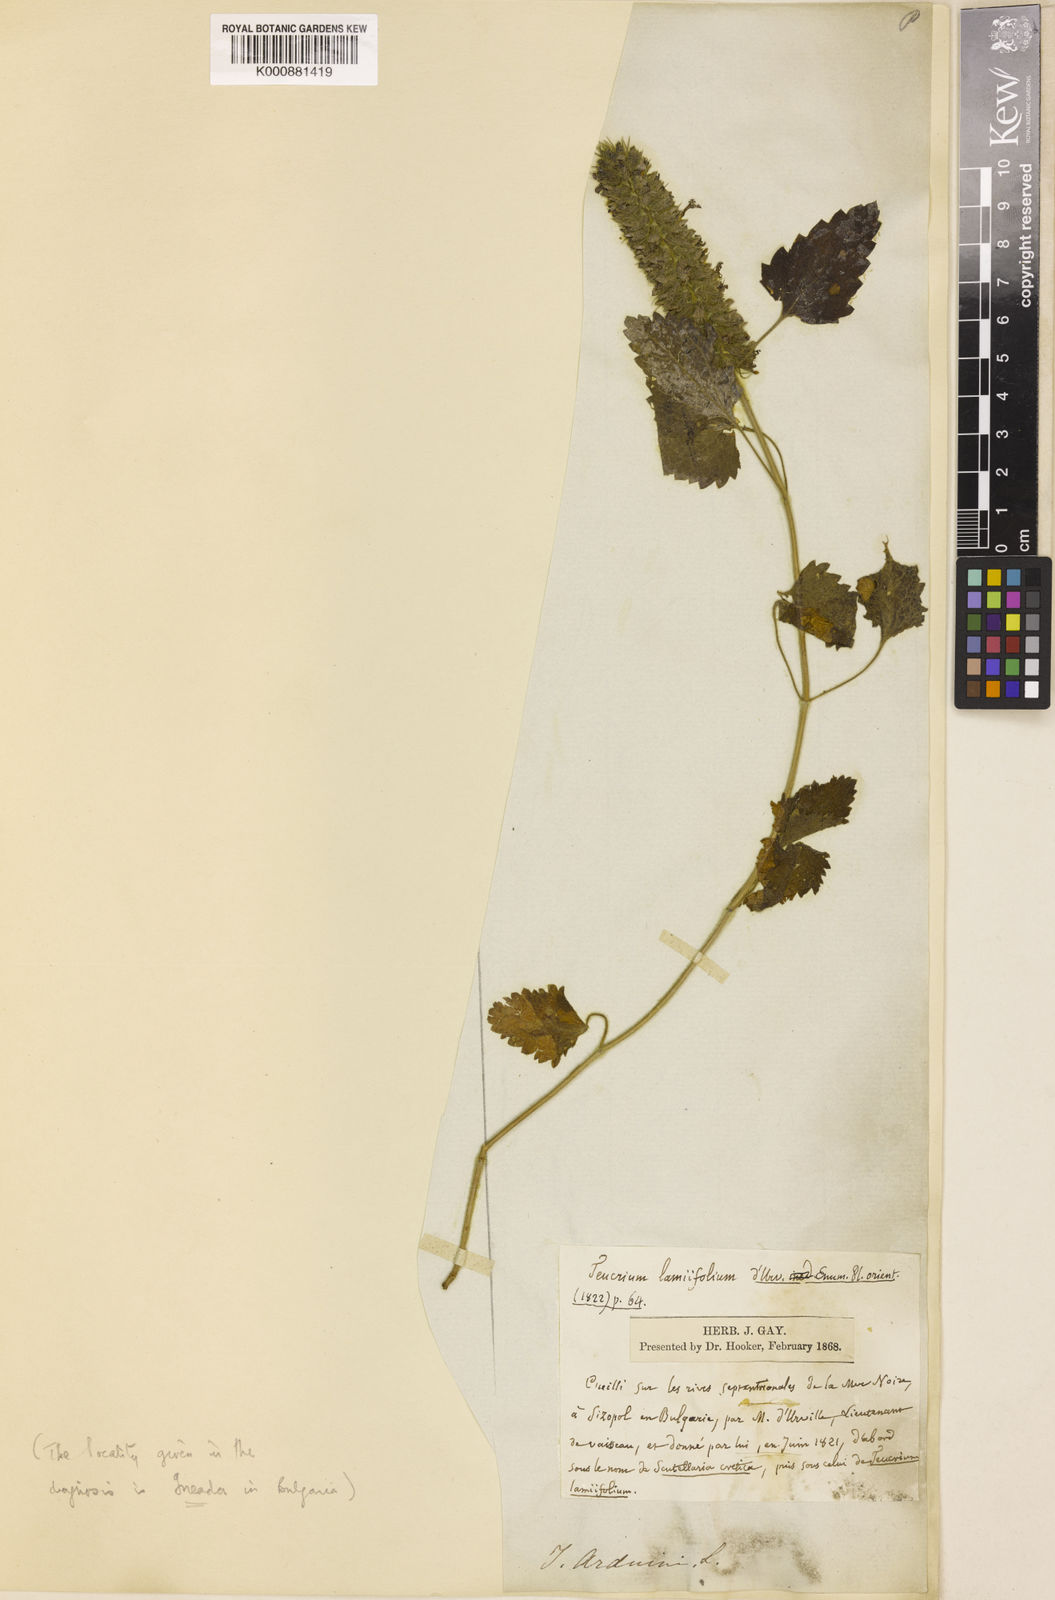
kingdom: Plantae
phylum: Tracheophyta
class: Magnoliopsida
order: Lamiales
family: Lamiaceae
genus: Teucrium
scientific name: Teucrium lamiifolium
